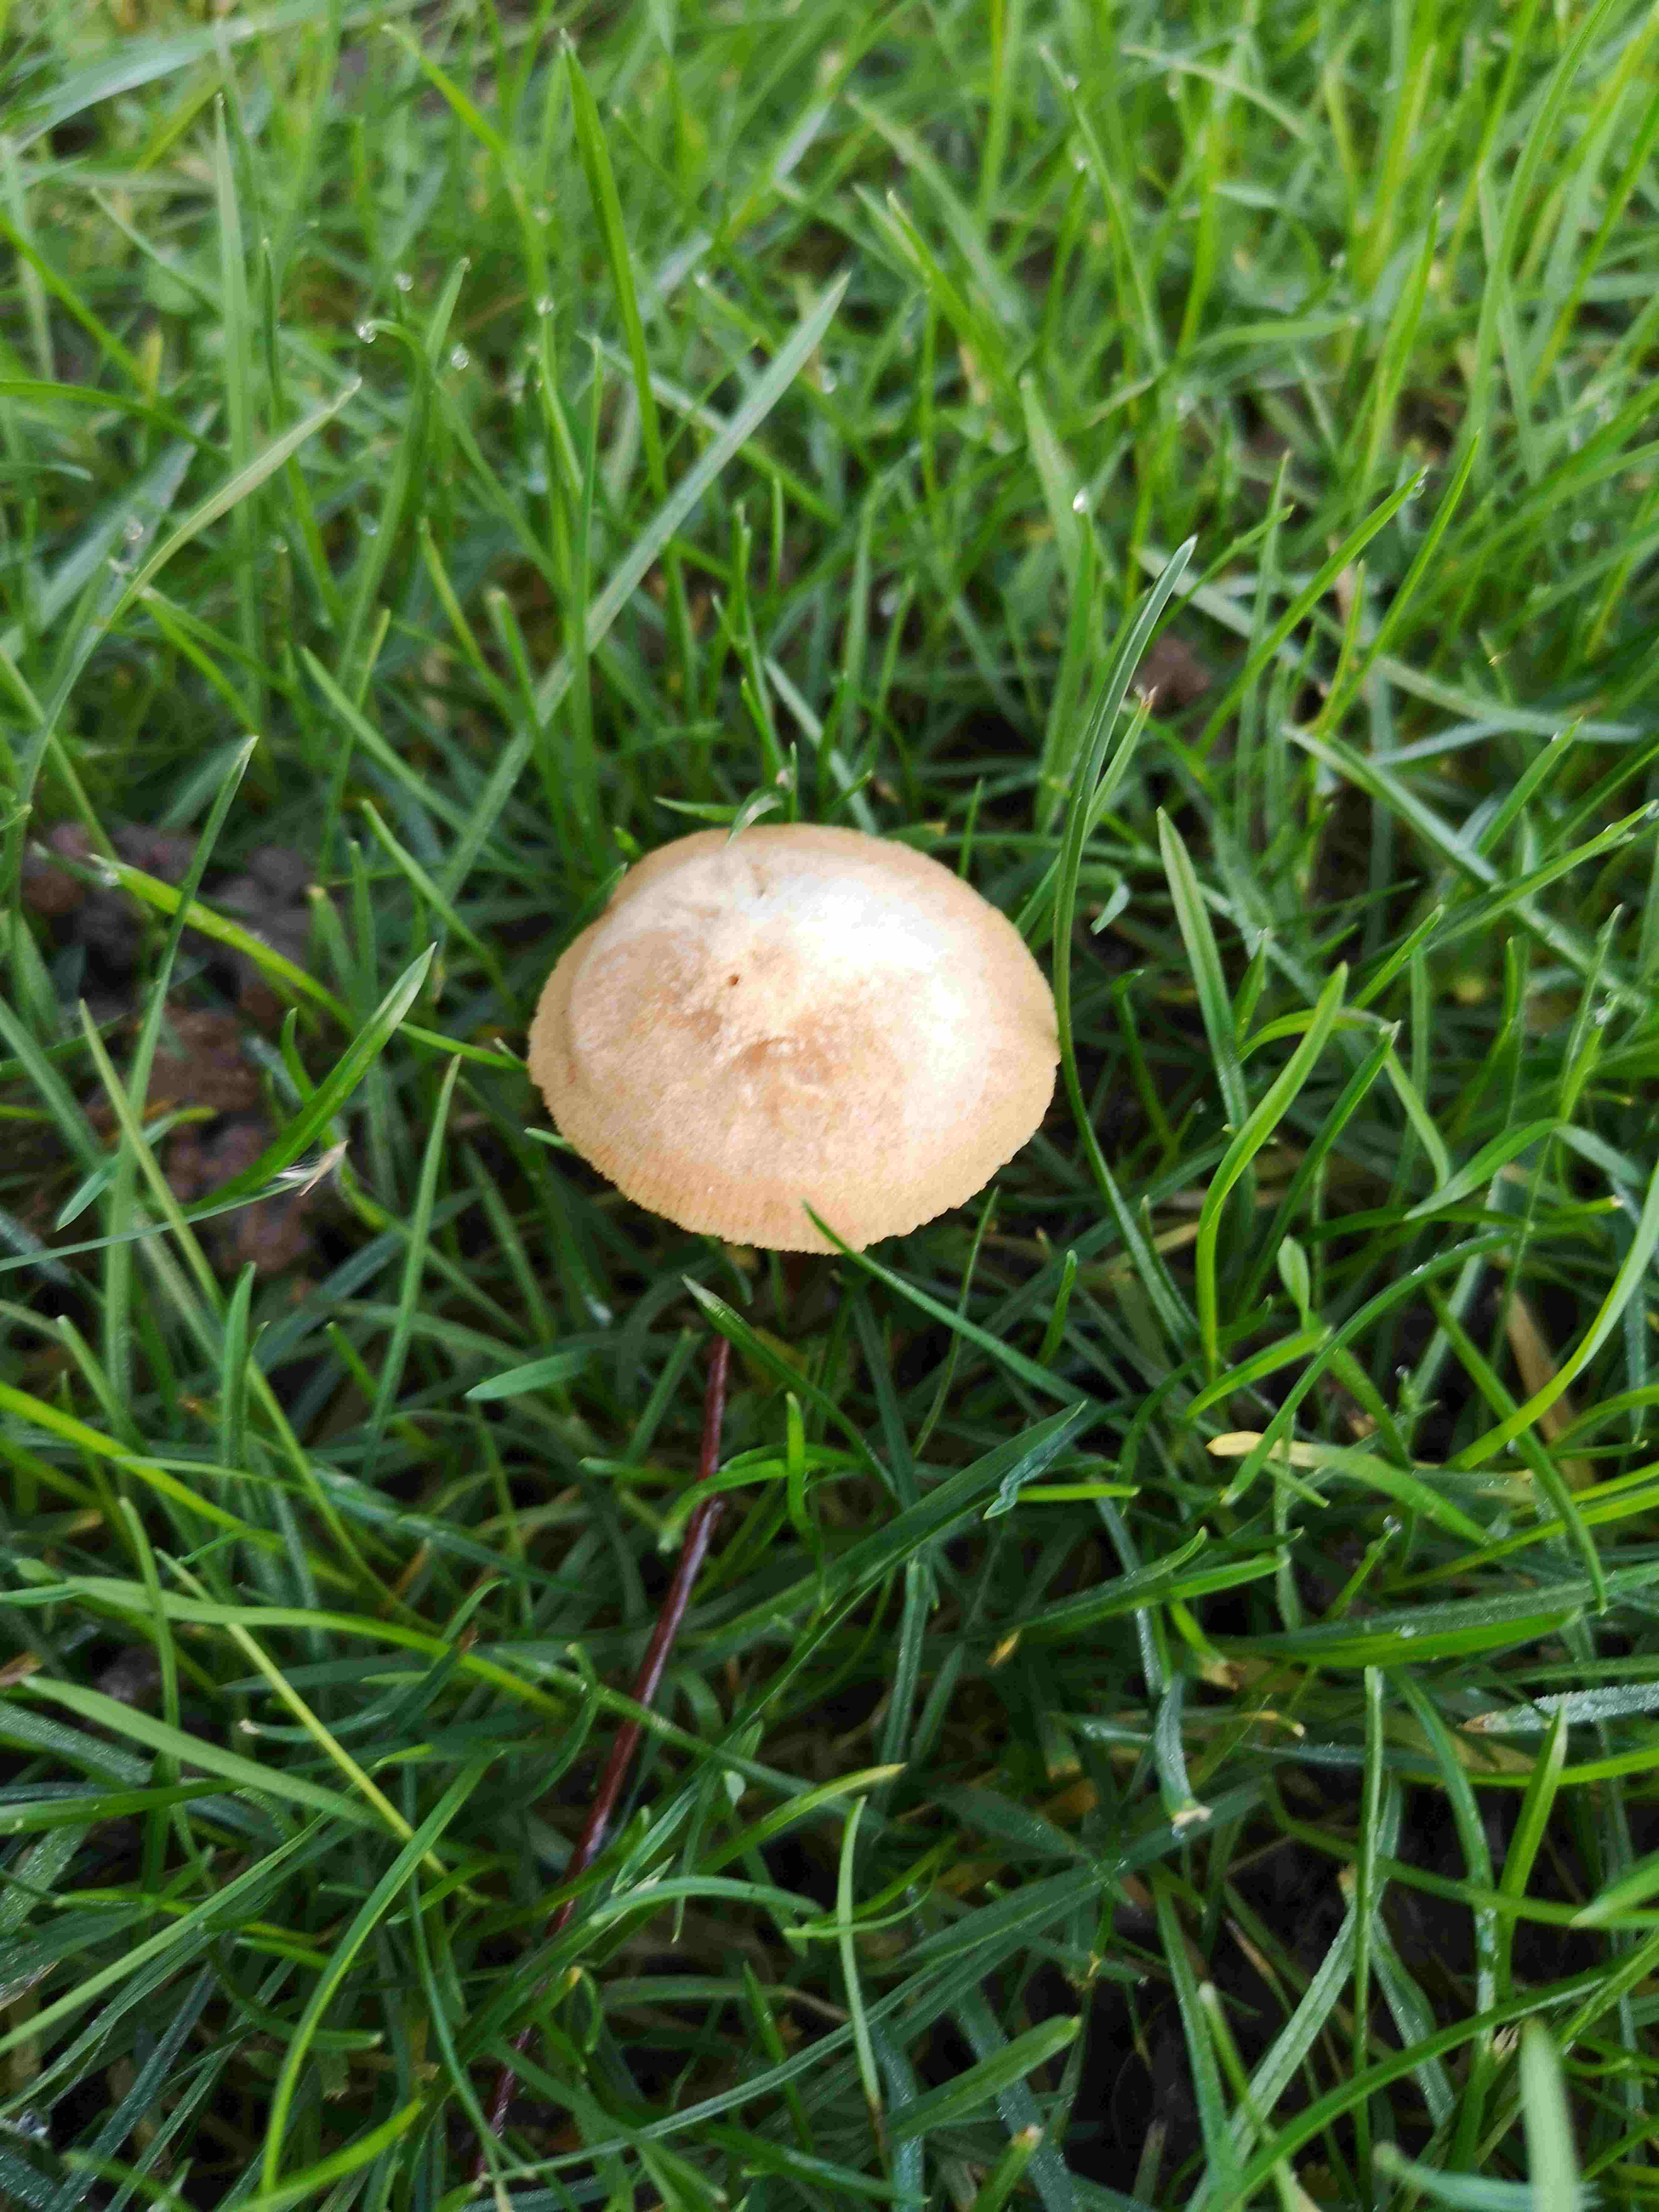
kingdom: Fungi
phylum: Basidiomycota
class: Agaricomycetes
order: Agaricales
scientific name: Agaricales
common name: champignonordenen
